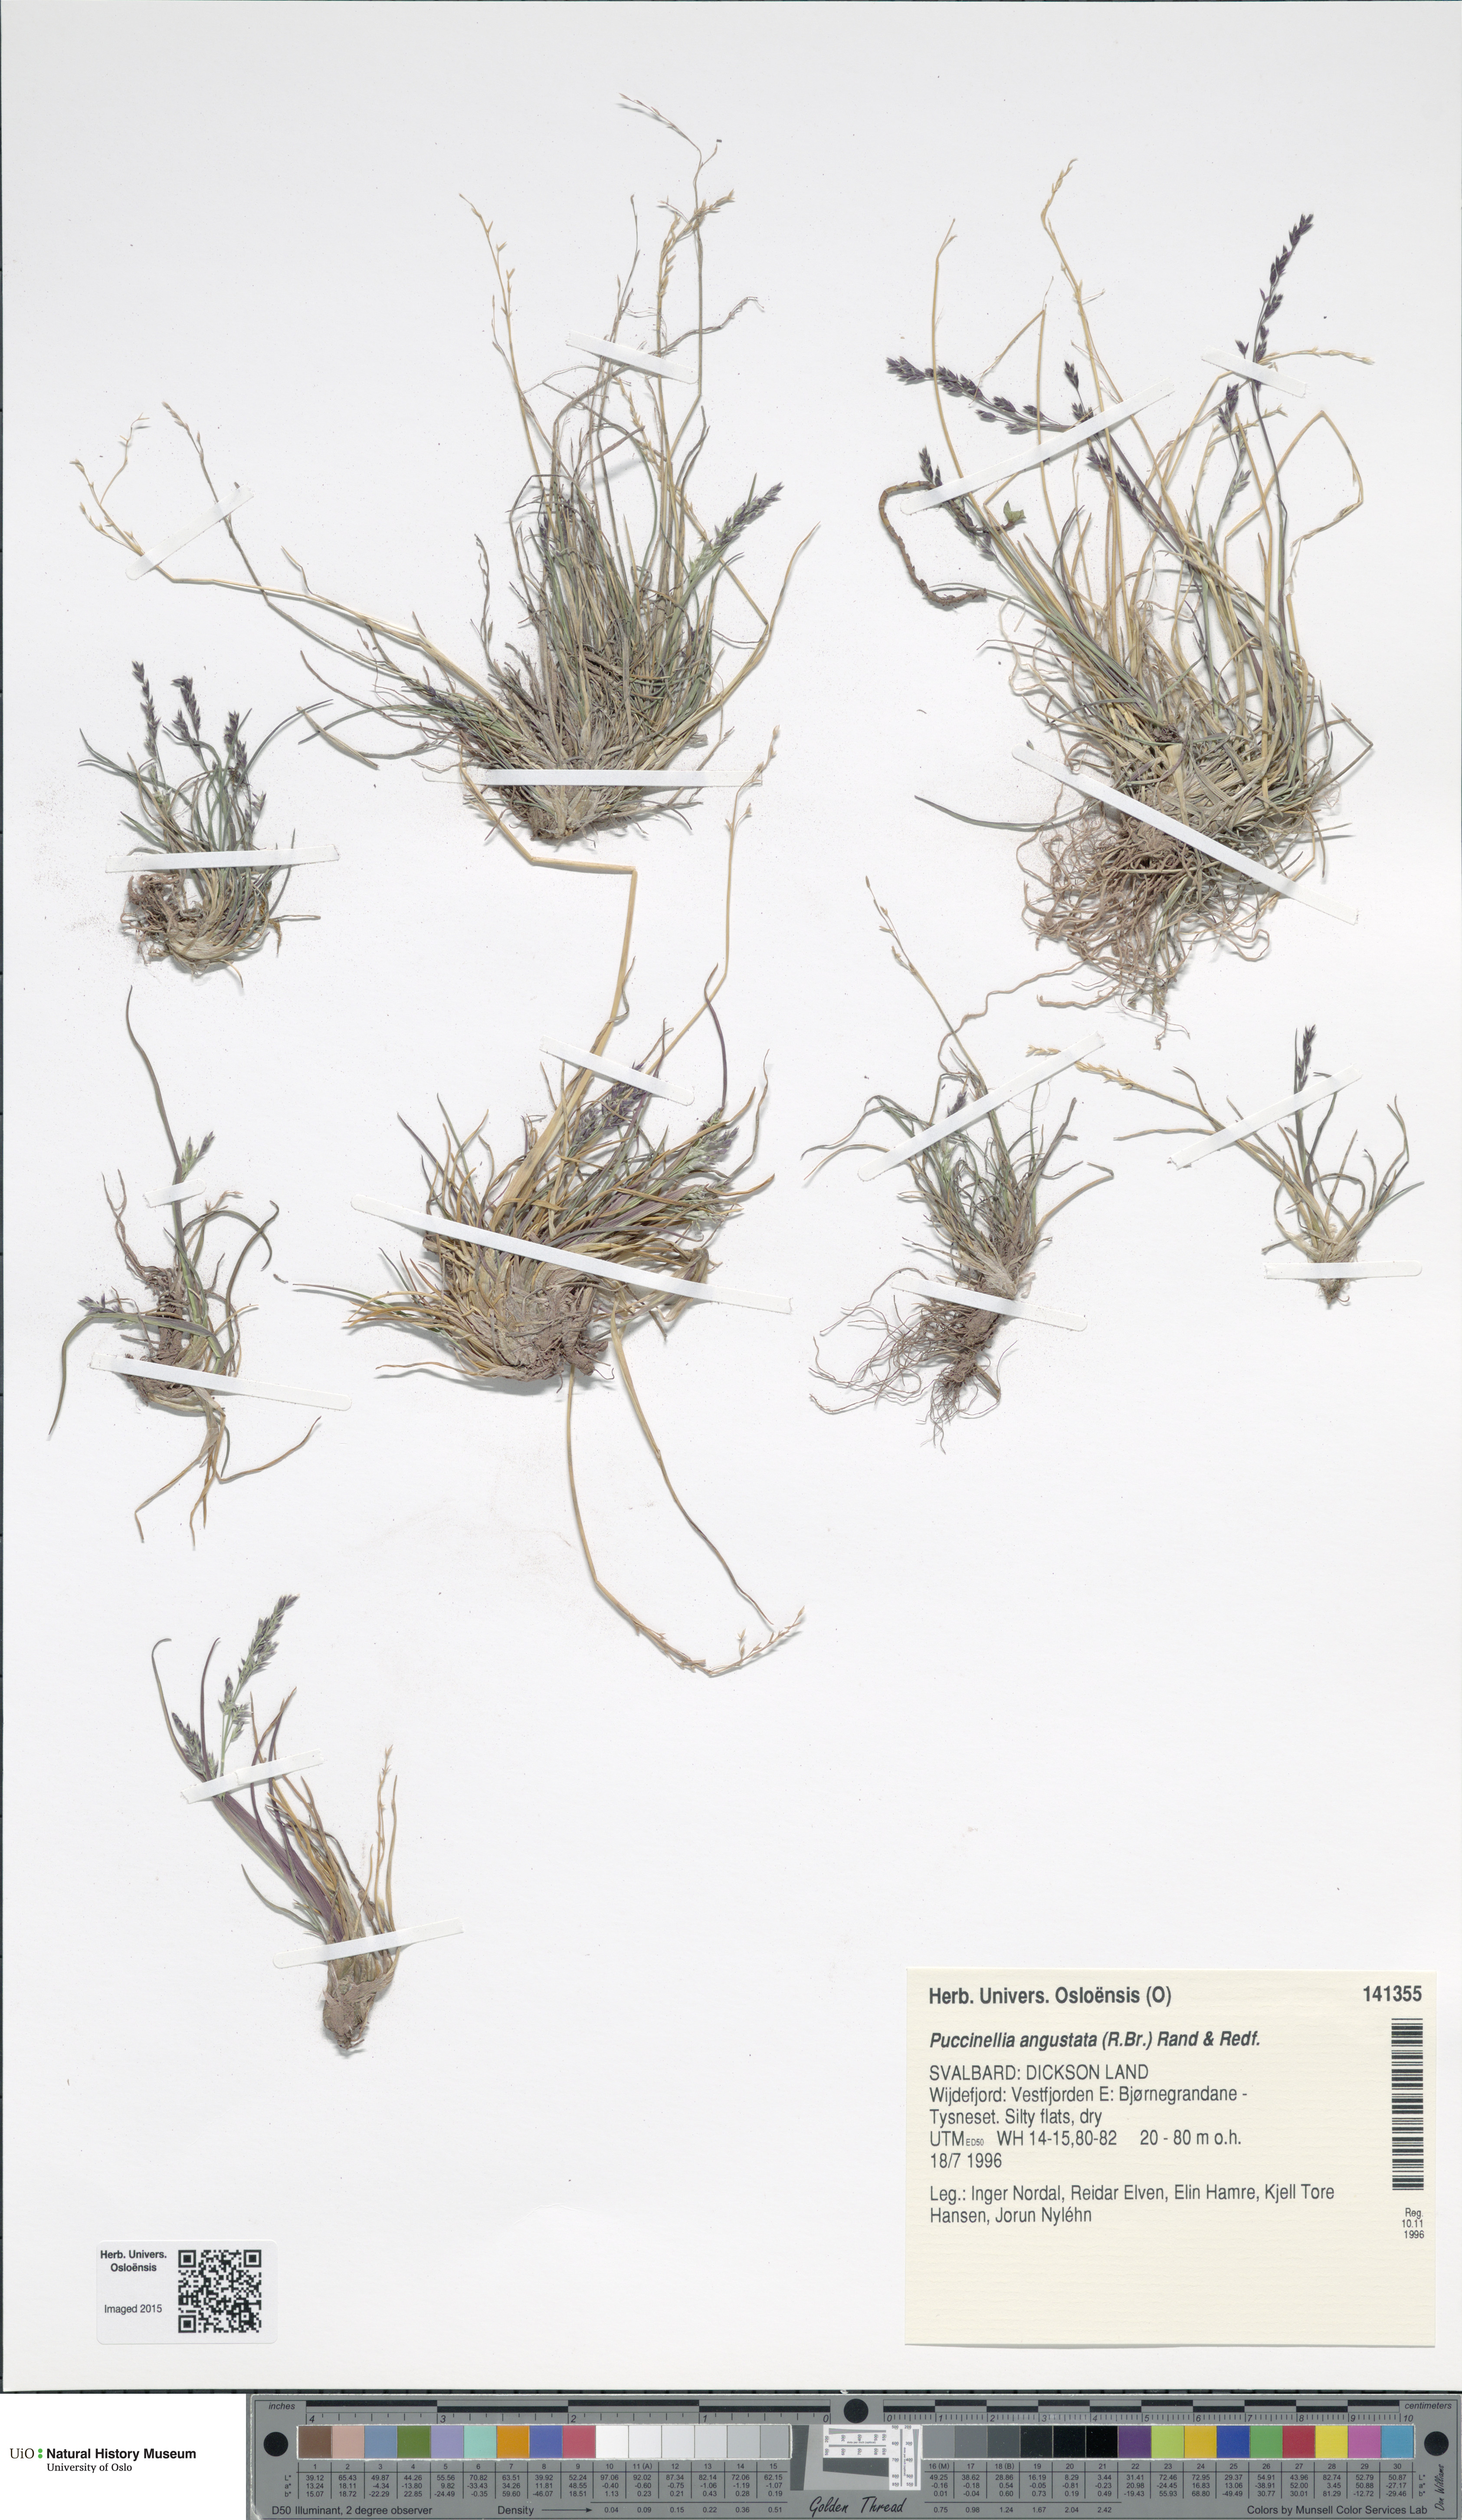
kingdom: Plantae
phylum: Tracheophyta
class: Liliopsida
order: Poales
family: Poaceae
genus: Puccinellia
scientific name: Puccinellia angustata
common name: Narrow alkaligrass
